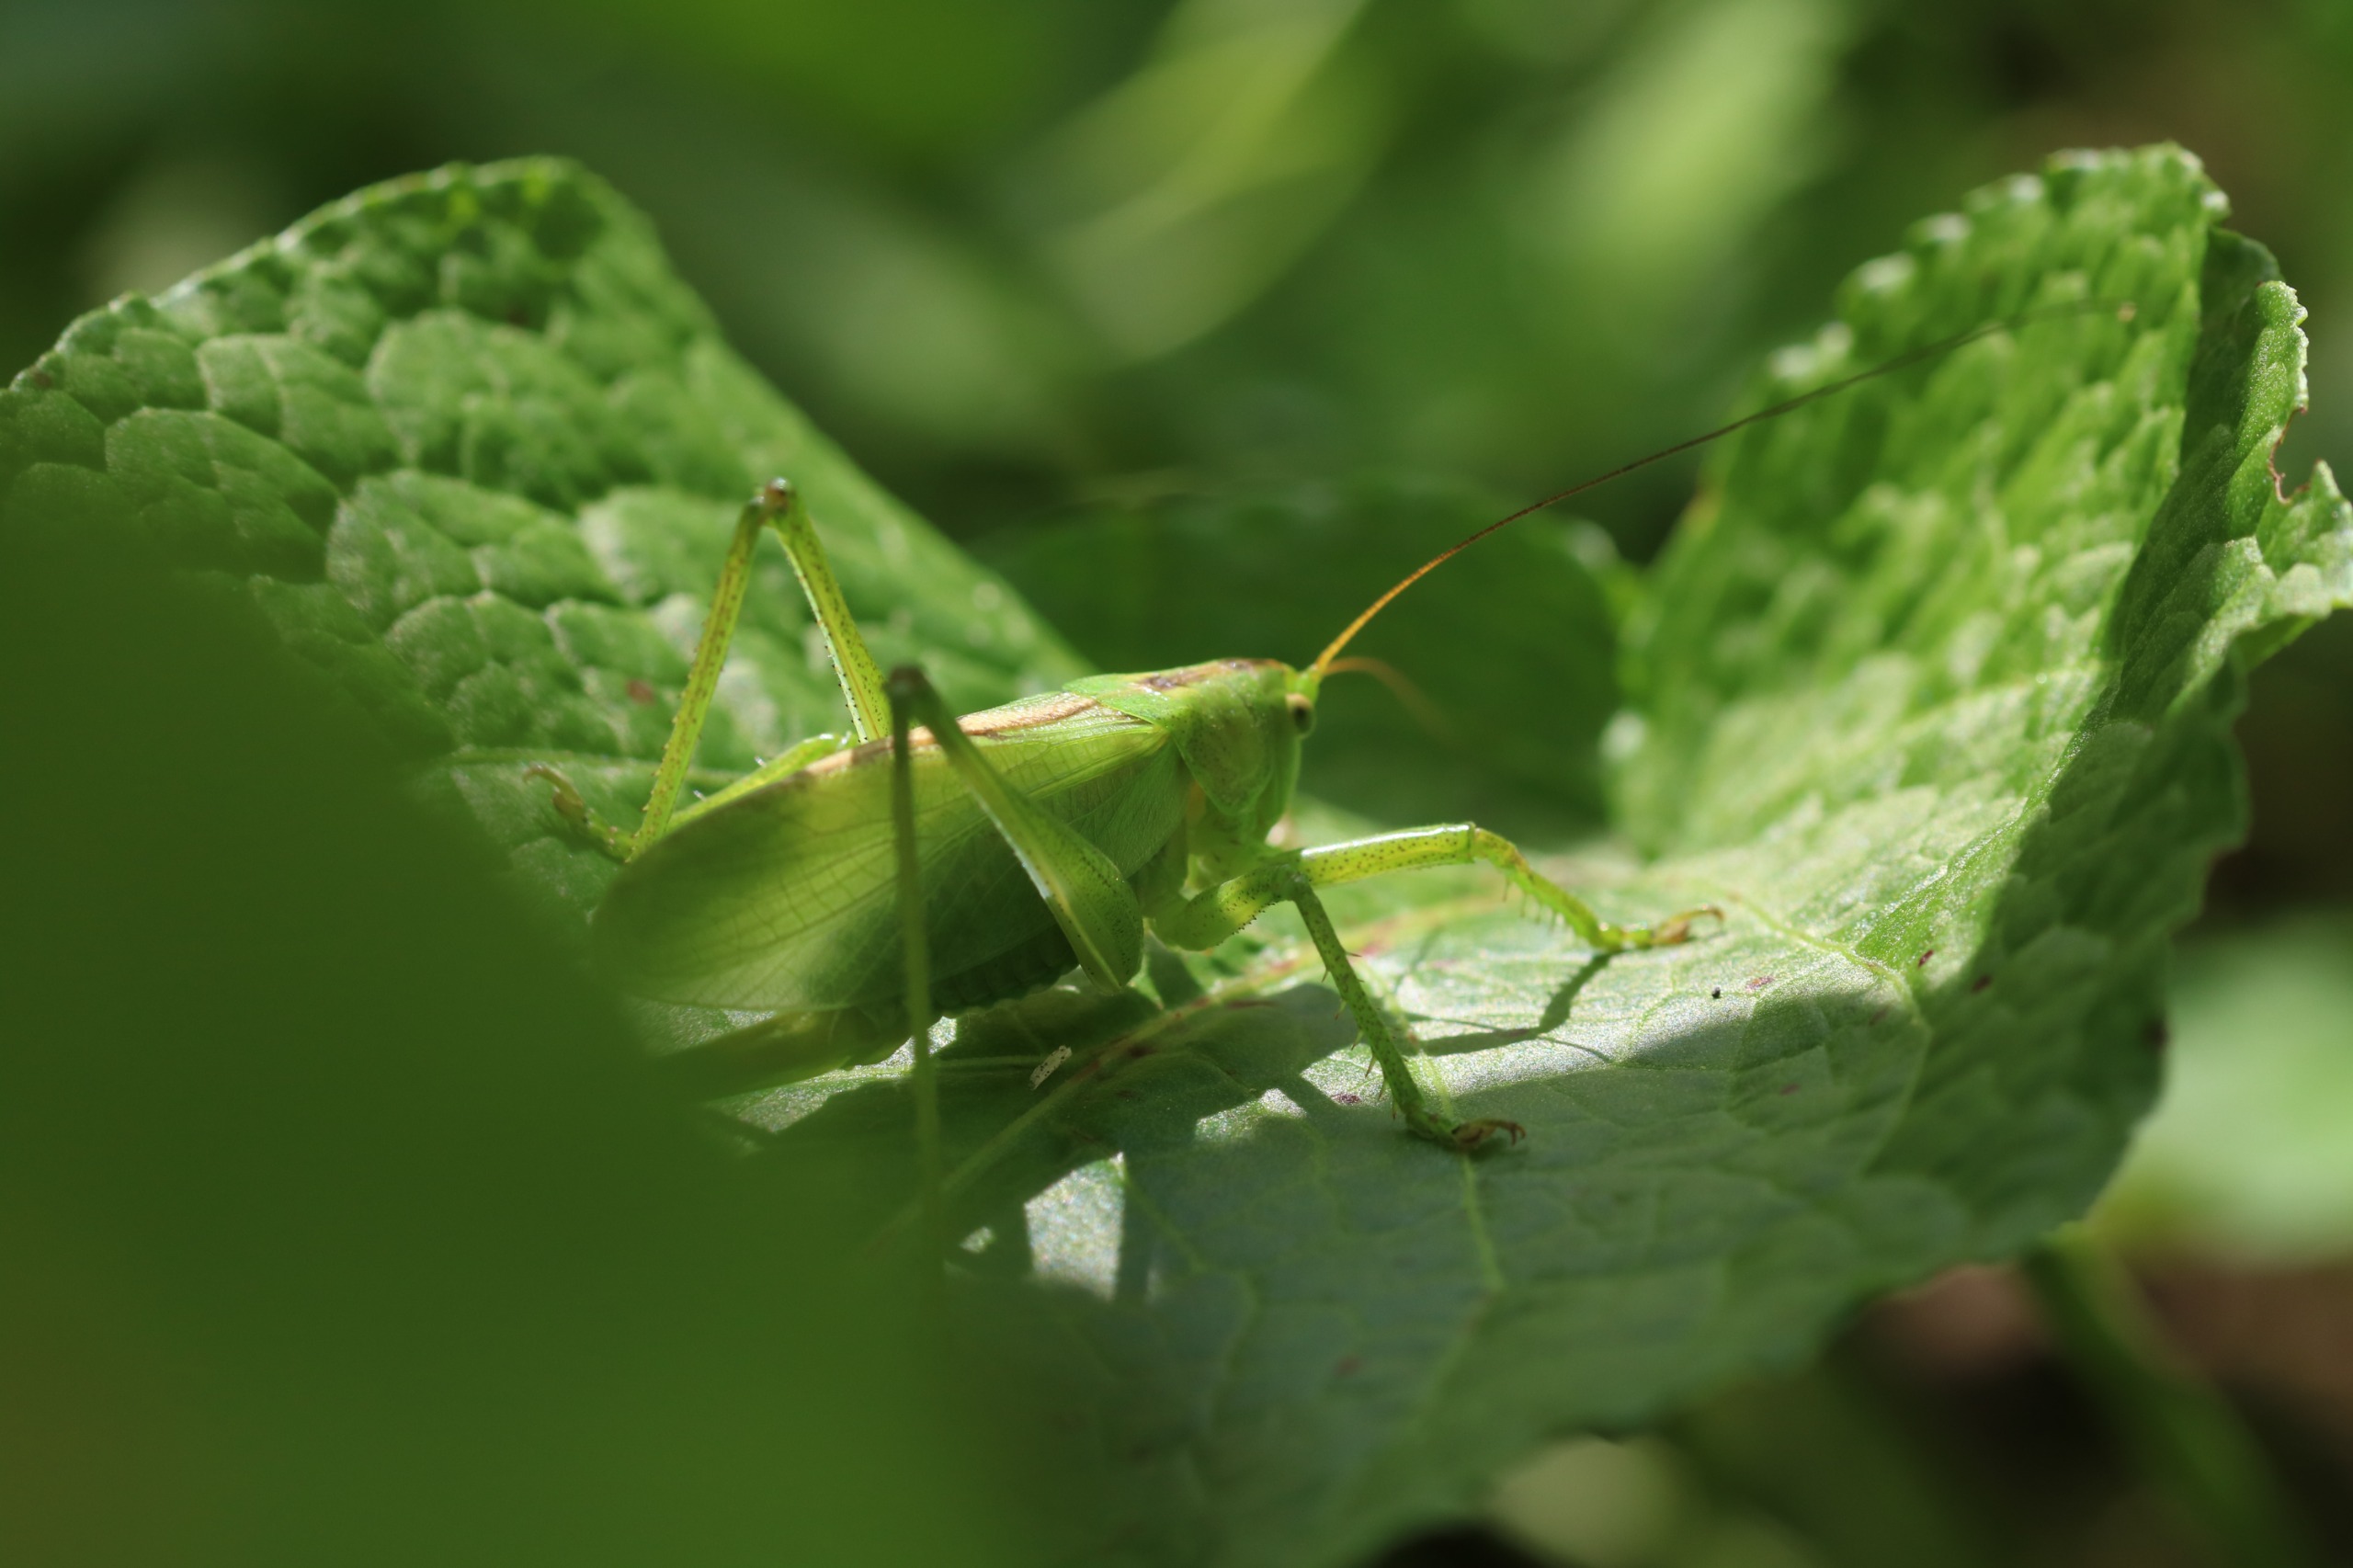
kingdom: Animalia
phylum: Arthropoda
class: Insecta
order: Orthoptera
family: Tettigoniidae
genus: Tettigonia
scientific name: Tettigonia cantans
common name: Syngende løvgræshoppe
